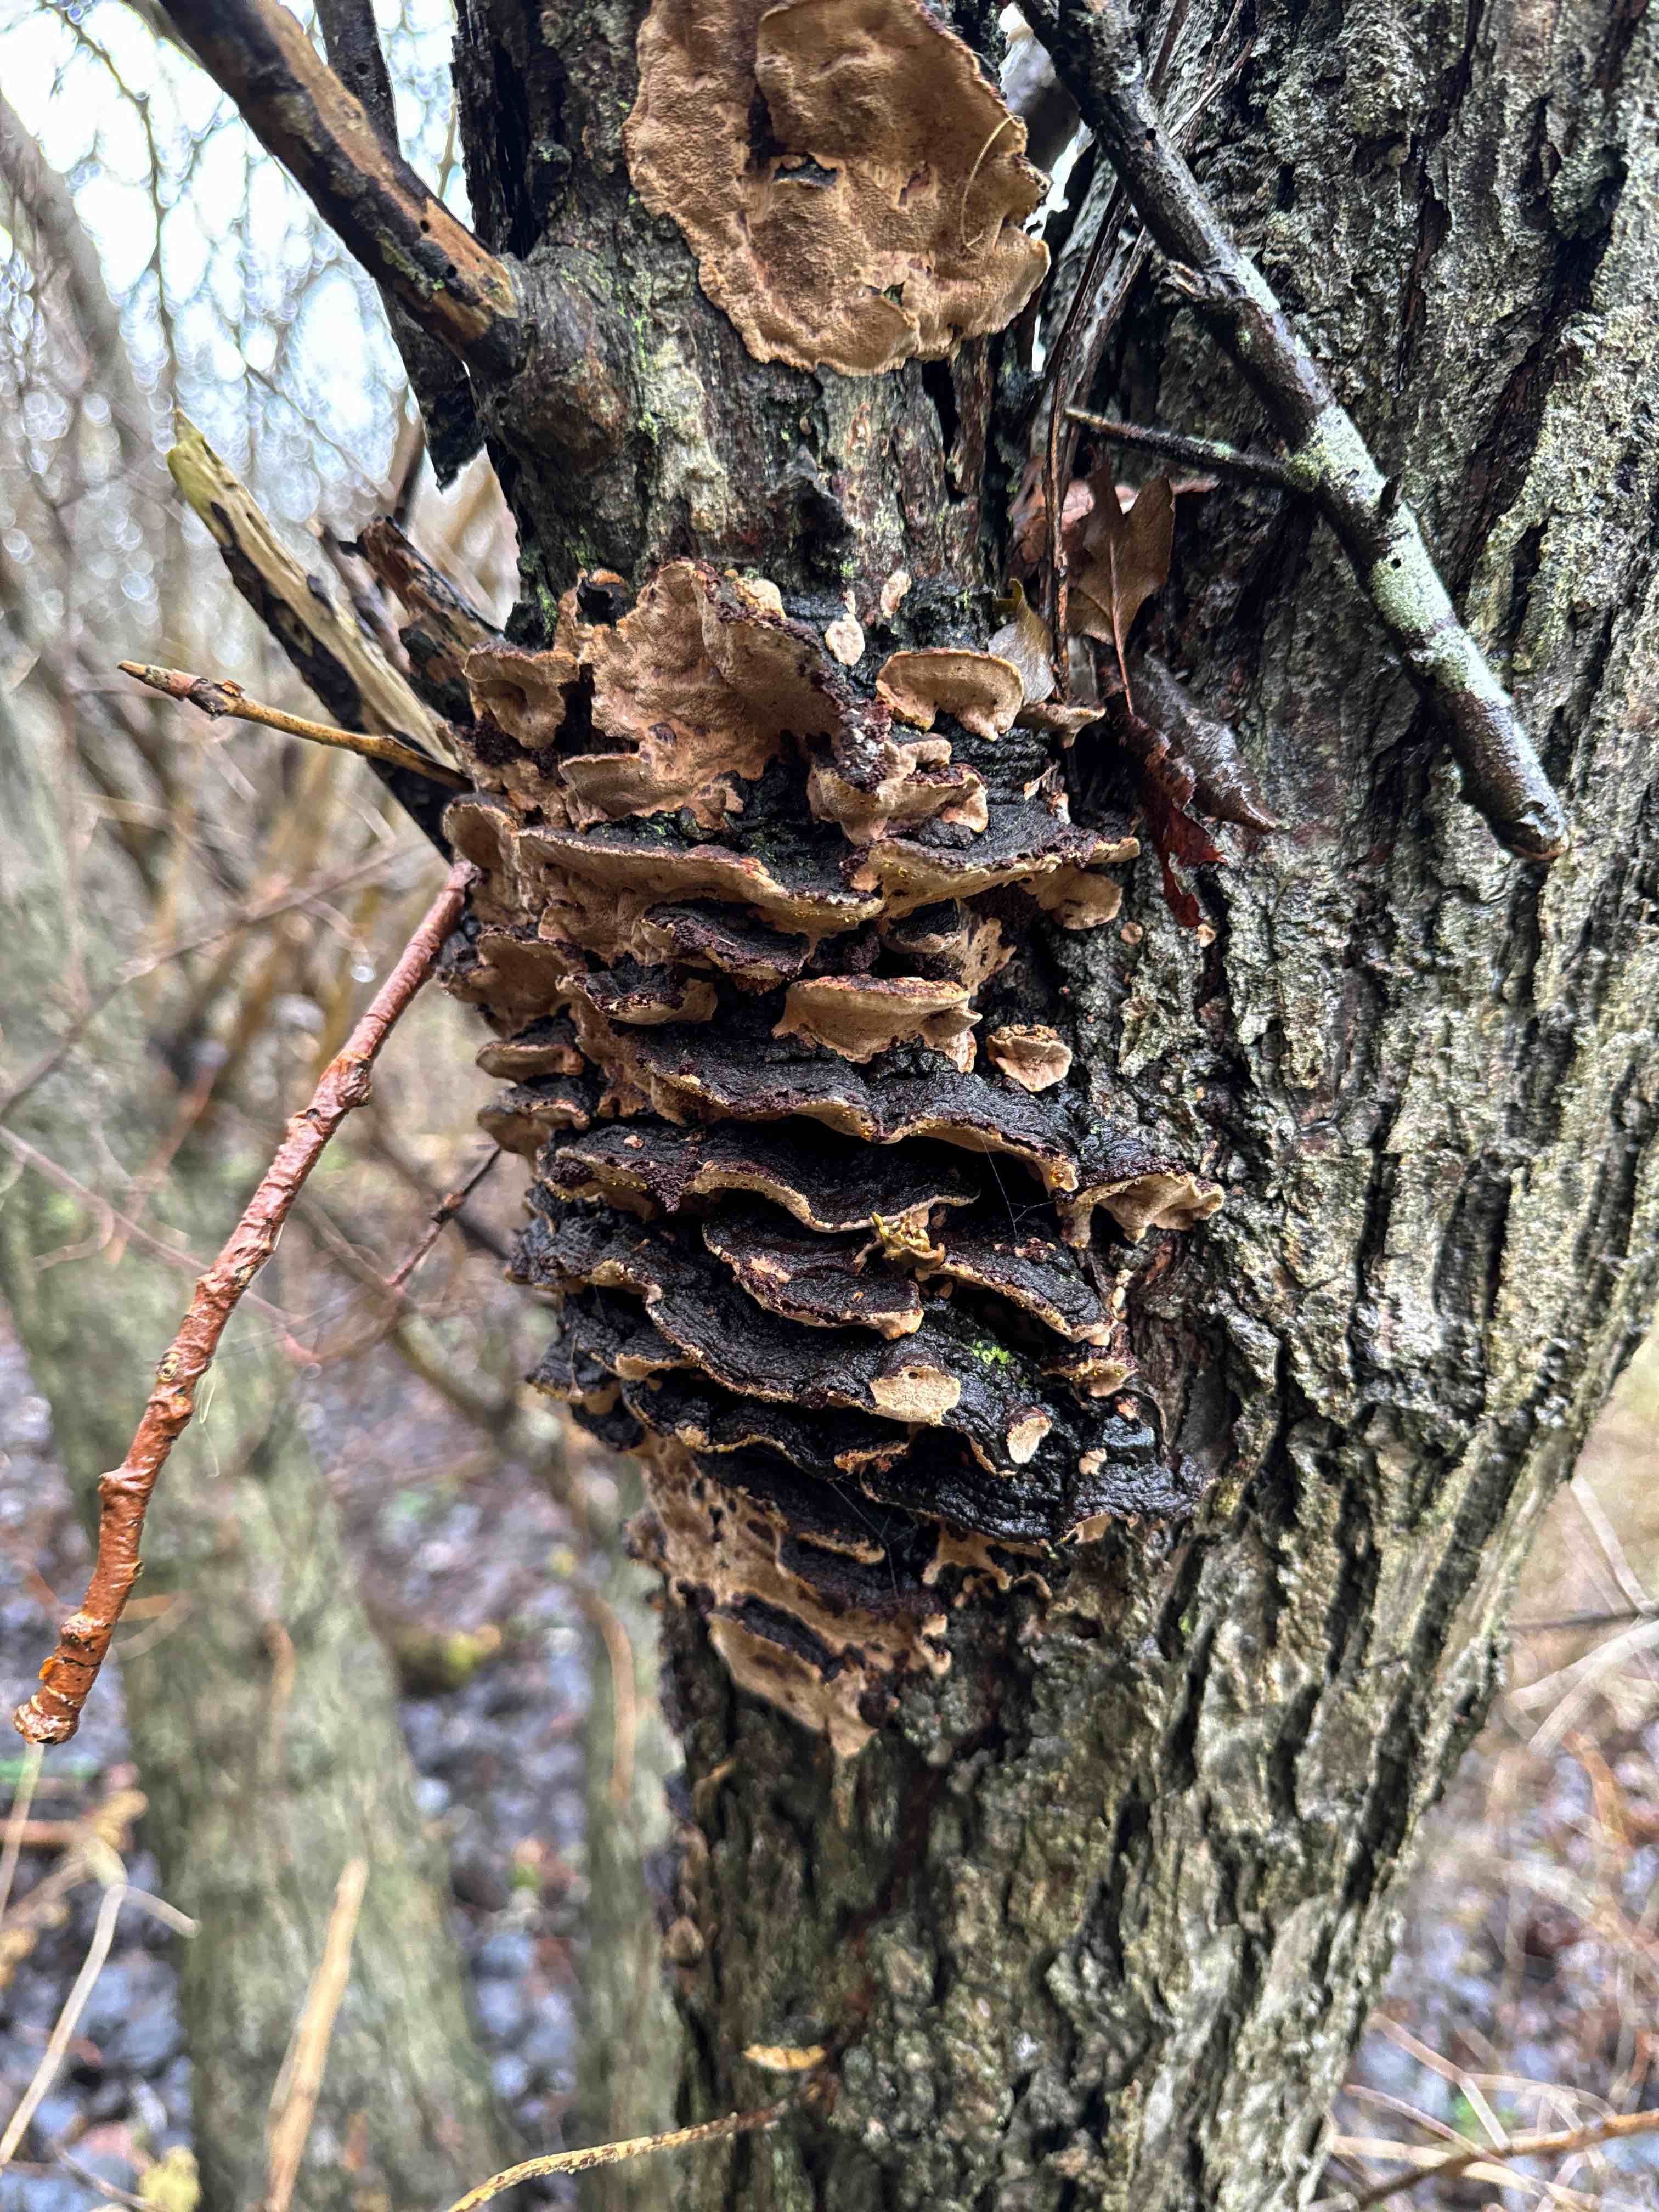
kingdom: Fungi
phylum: Basidiomycota
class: Agaricomycetes
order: Hymenochaetales
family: Hymenochaetaceae
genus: Phellinopsis
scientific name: Phellinopsis conchata
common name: pile-ildporesvamp
